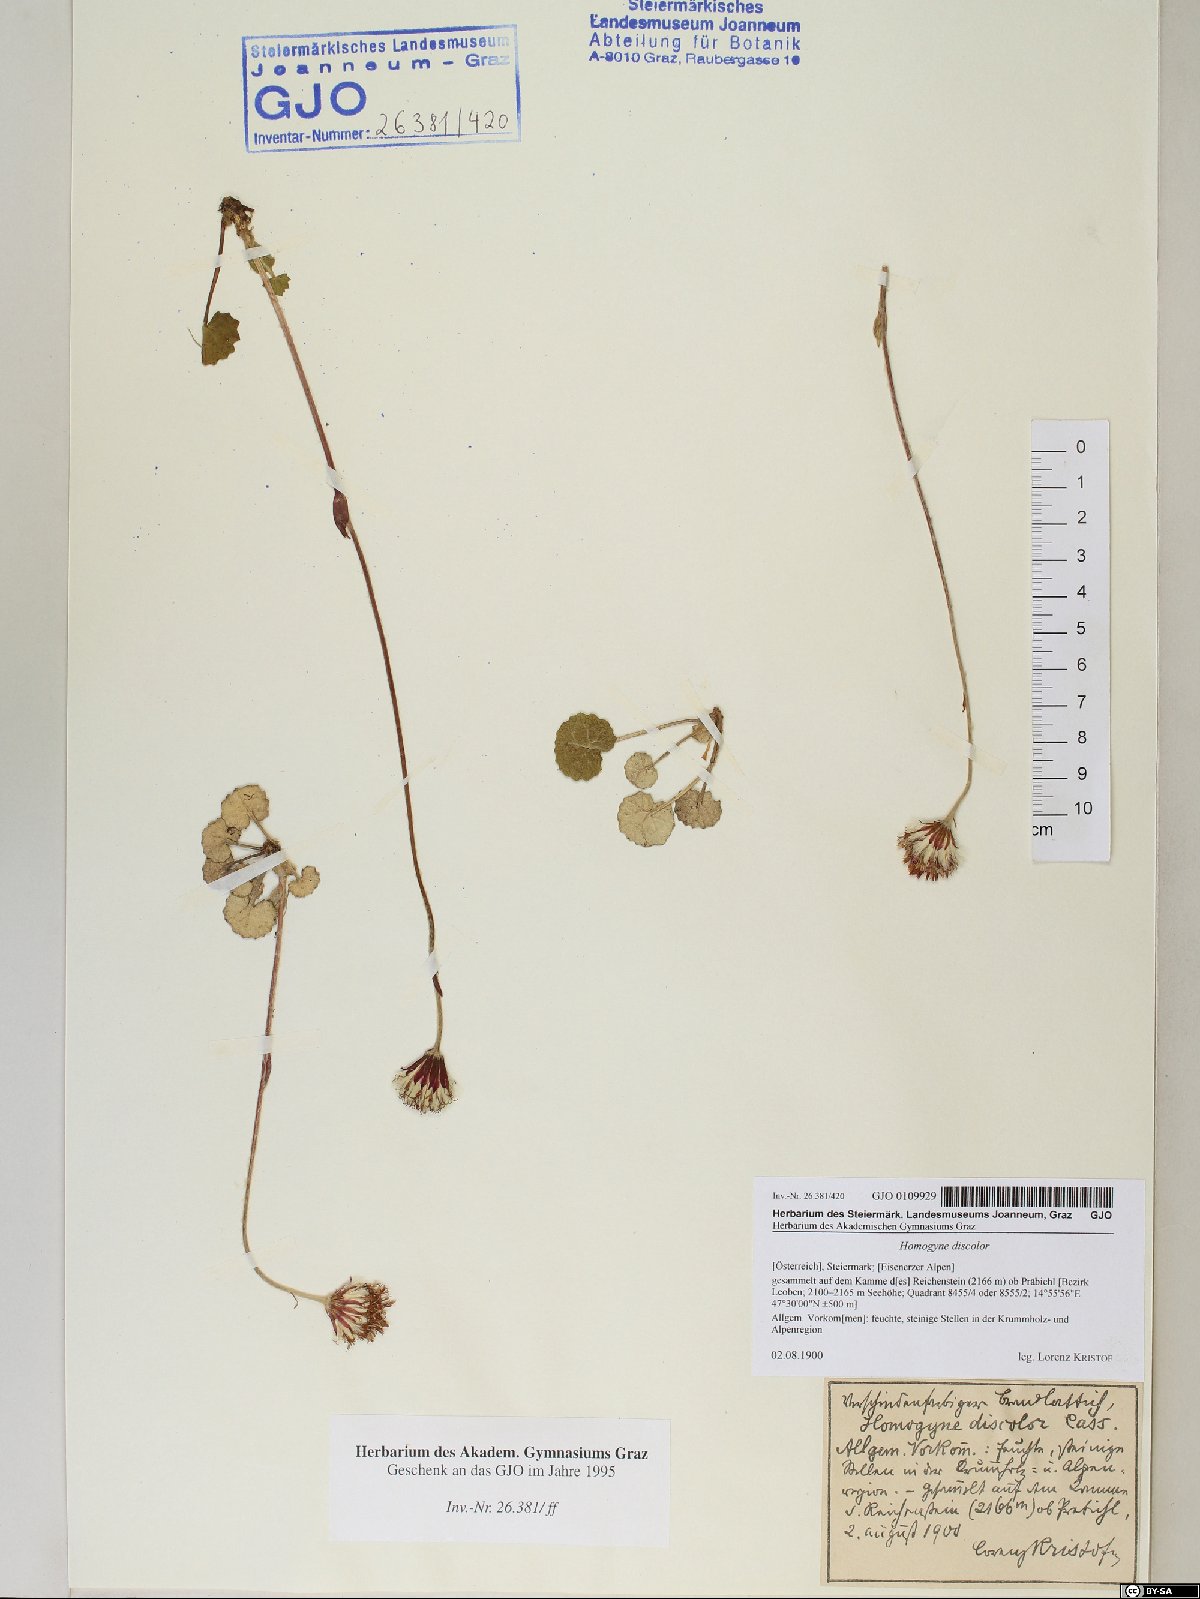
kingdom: Plantae
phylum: Tracheophyta
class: Magnoliopsida
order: Asterales
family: Asteraceae
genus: Homogyne
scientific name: Homogyne discolor
